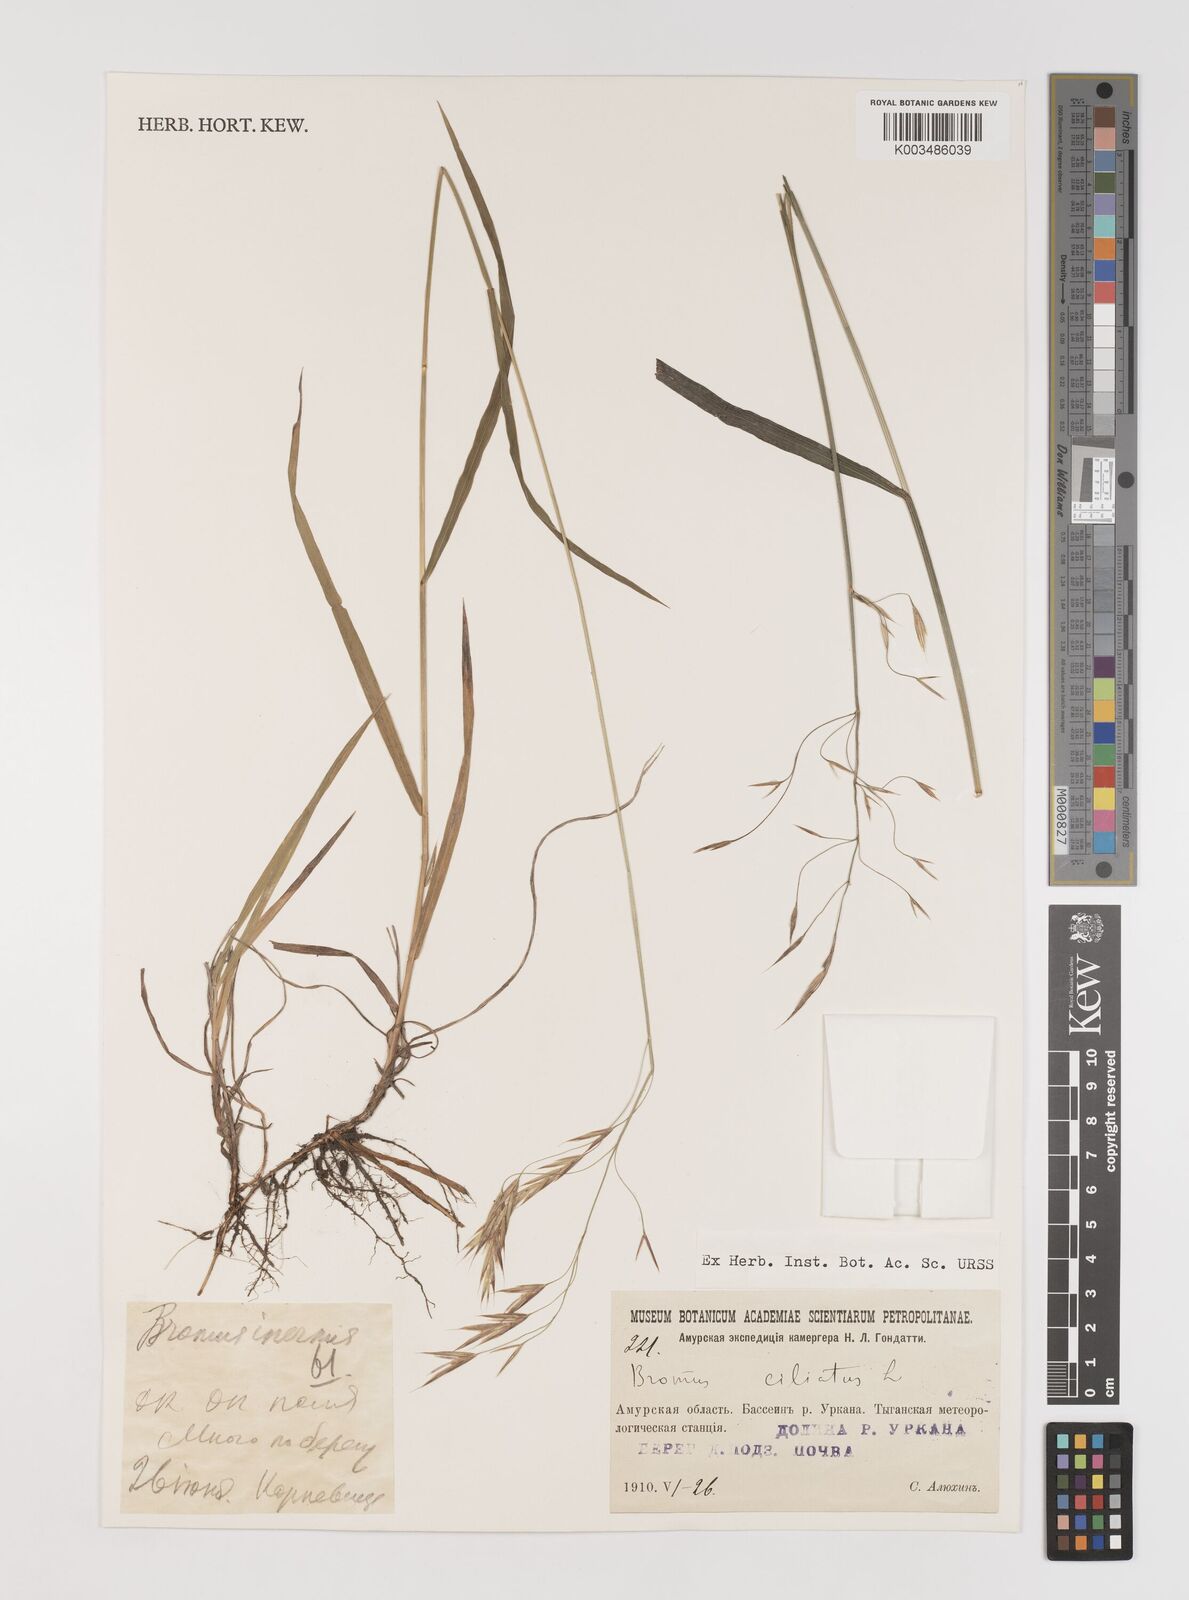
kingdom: Plantae
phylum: Tracheophyta
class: Liliopsida
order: Poales
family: Poaceae
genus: Bromus
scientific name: Bromus inermis
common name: Smooth brome
